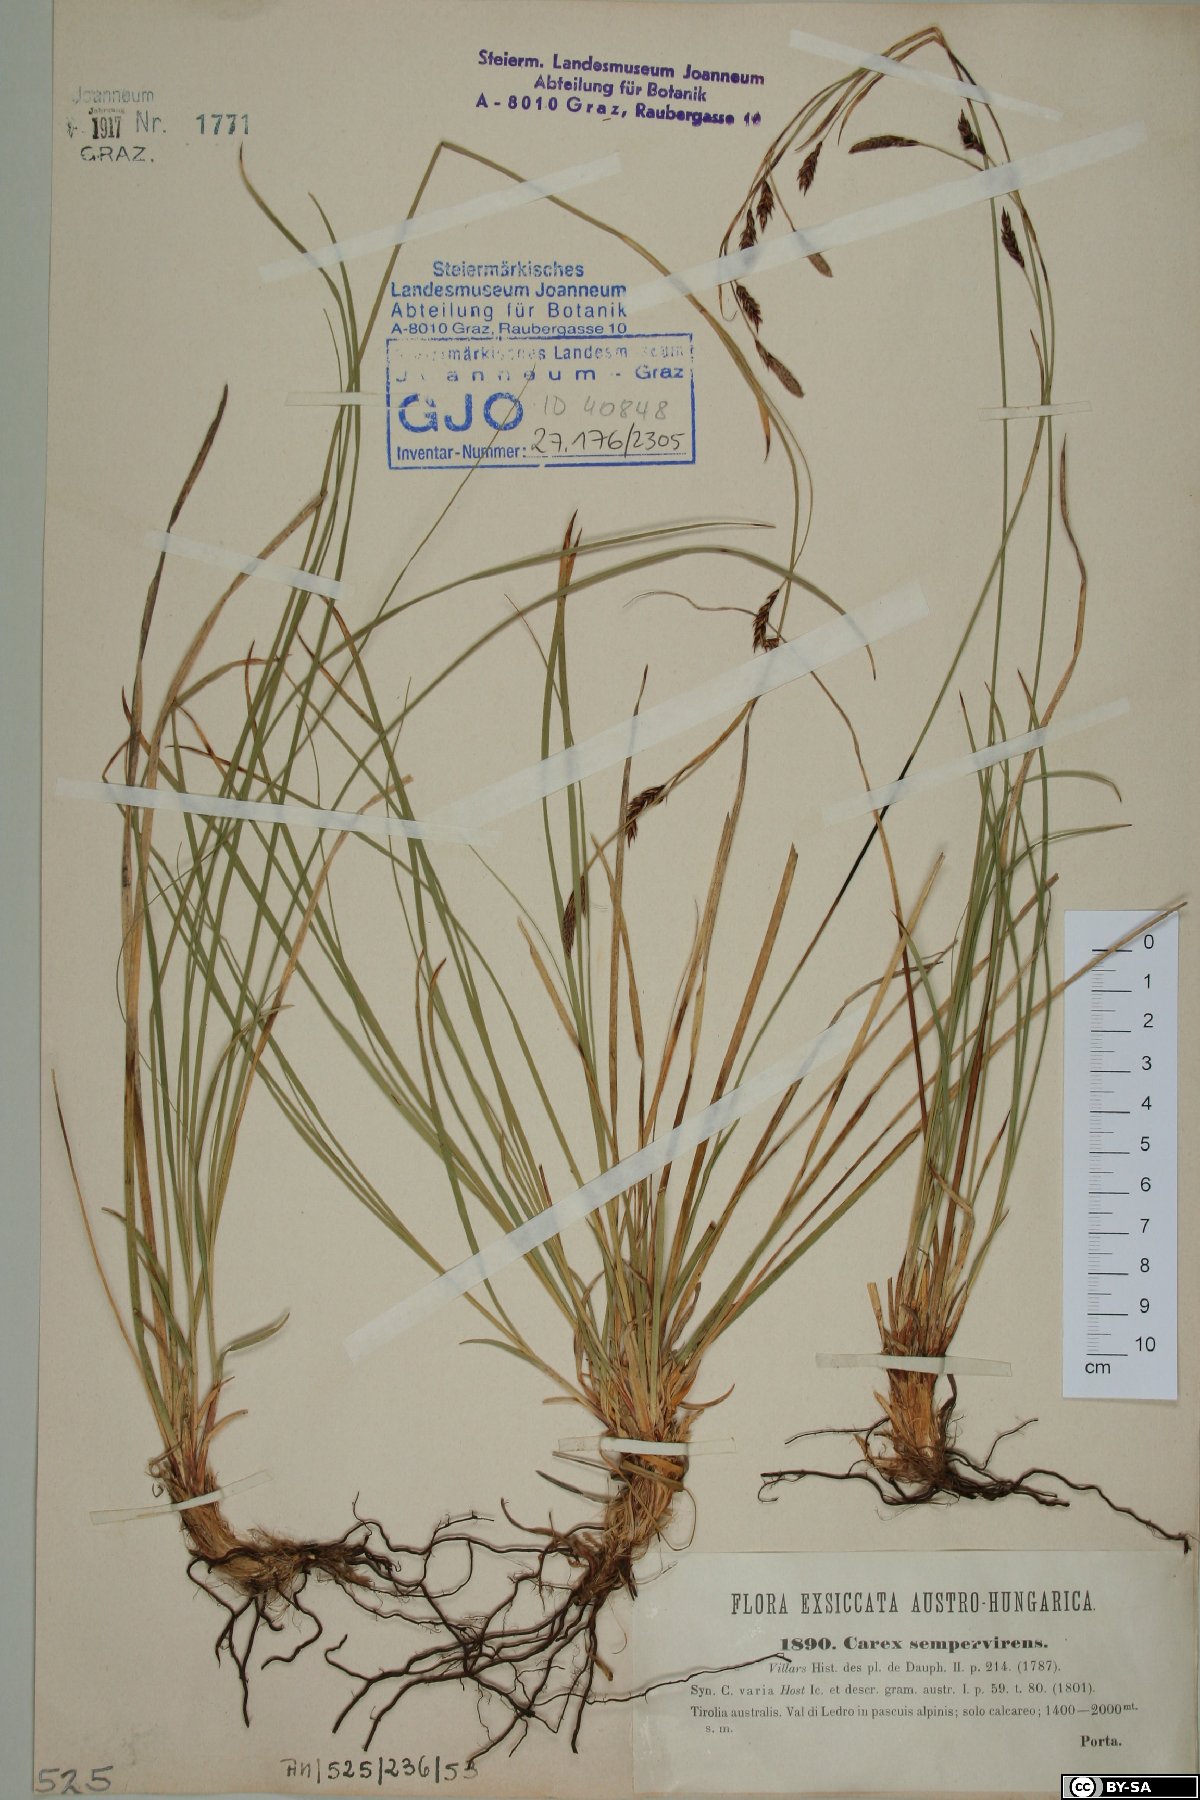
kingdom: Plantae
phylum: Tracheophyta
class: Liliopsida
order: Poales
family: Cyperaceae
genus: Carex
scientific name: Carex sempervirens
